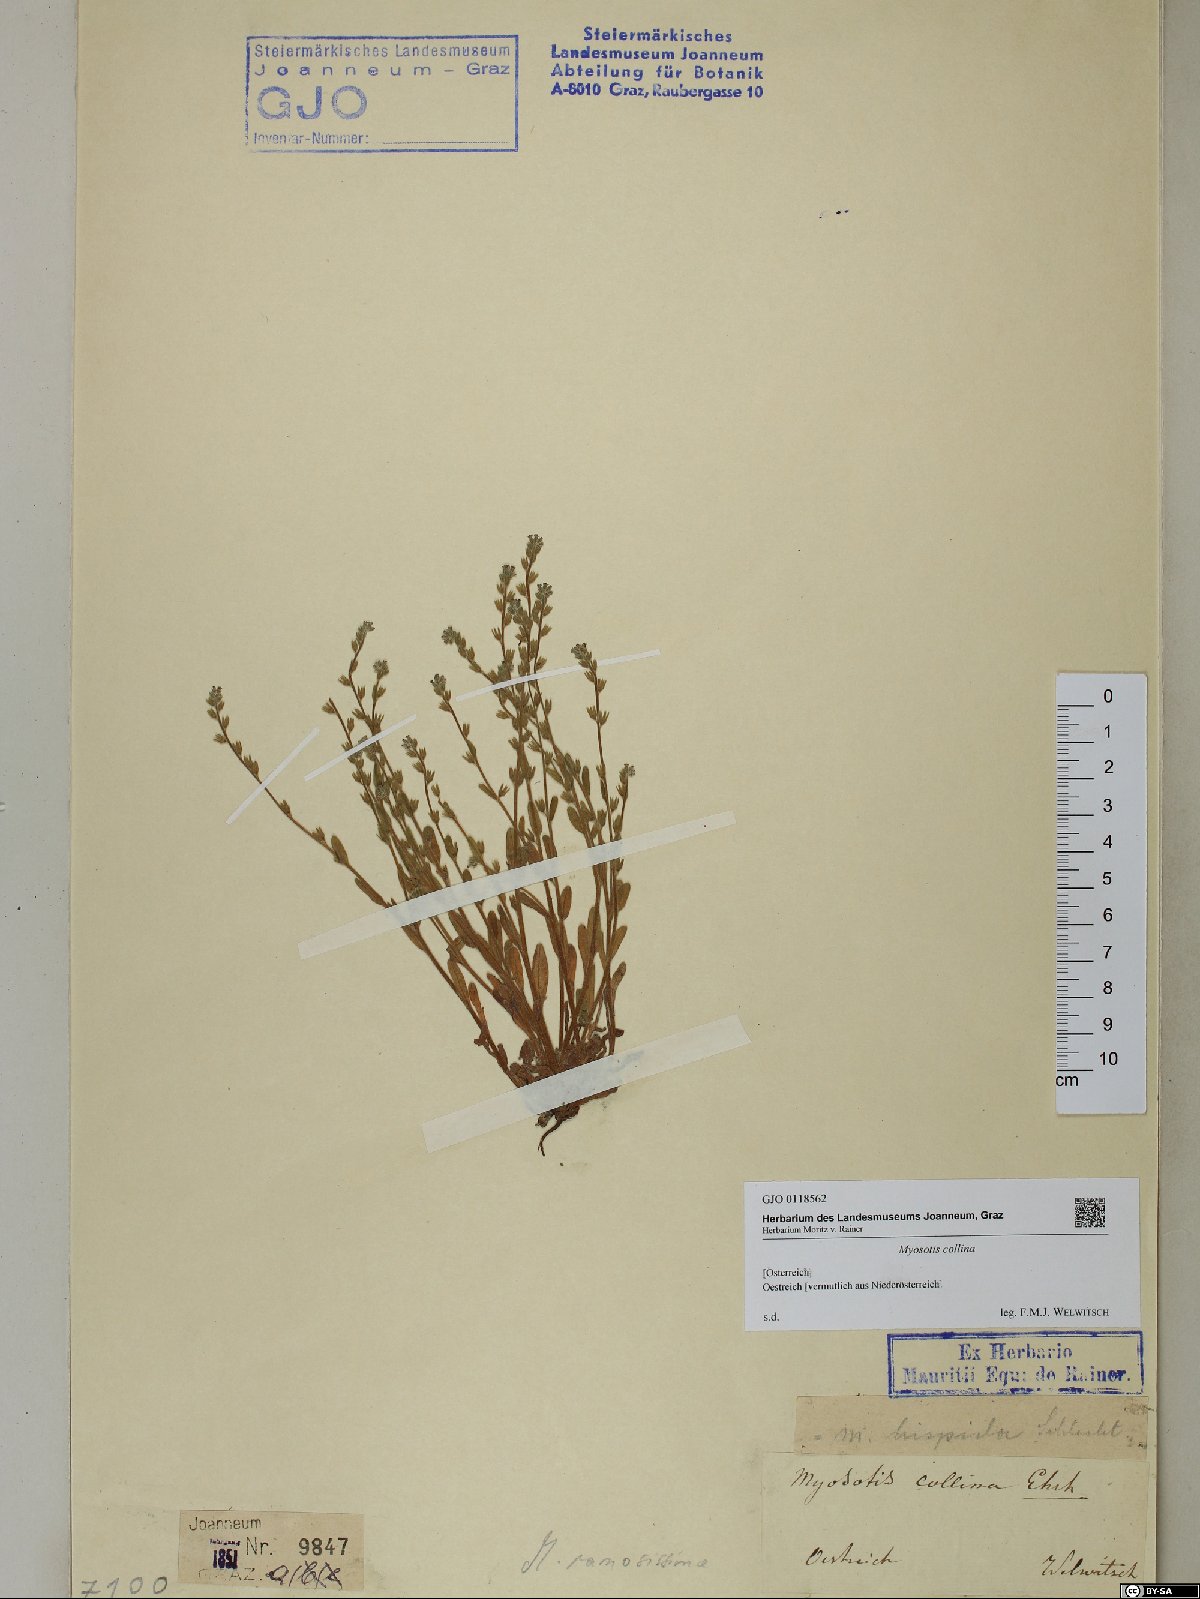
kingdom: Plantae
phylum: Tracheophyta
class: Magnoliopsida
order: Boraginales
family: Boraginaceae
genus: Myosotis
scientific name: Myosotis discolor
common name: Changing forget-me-not
